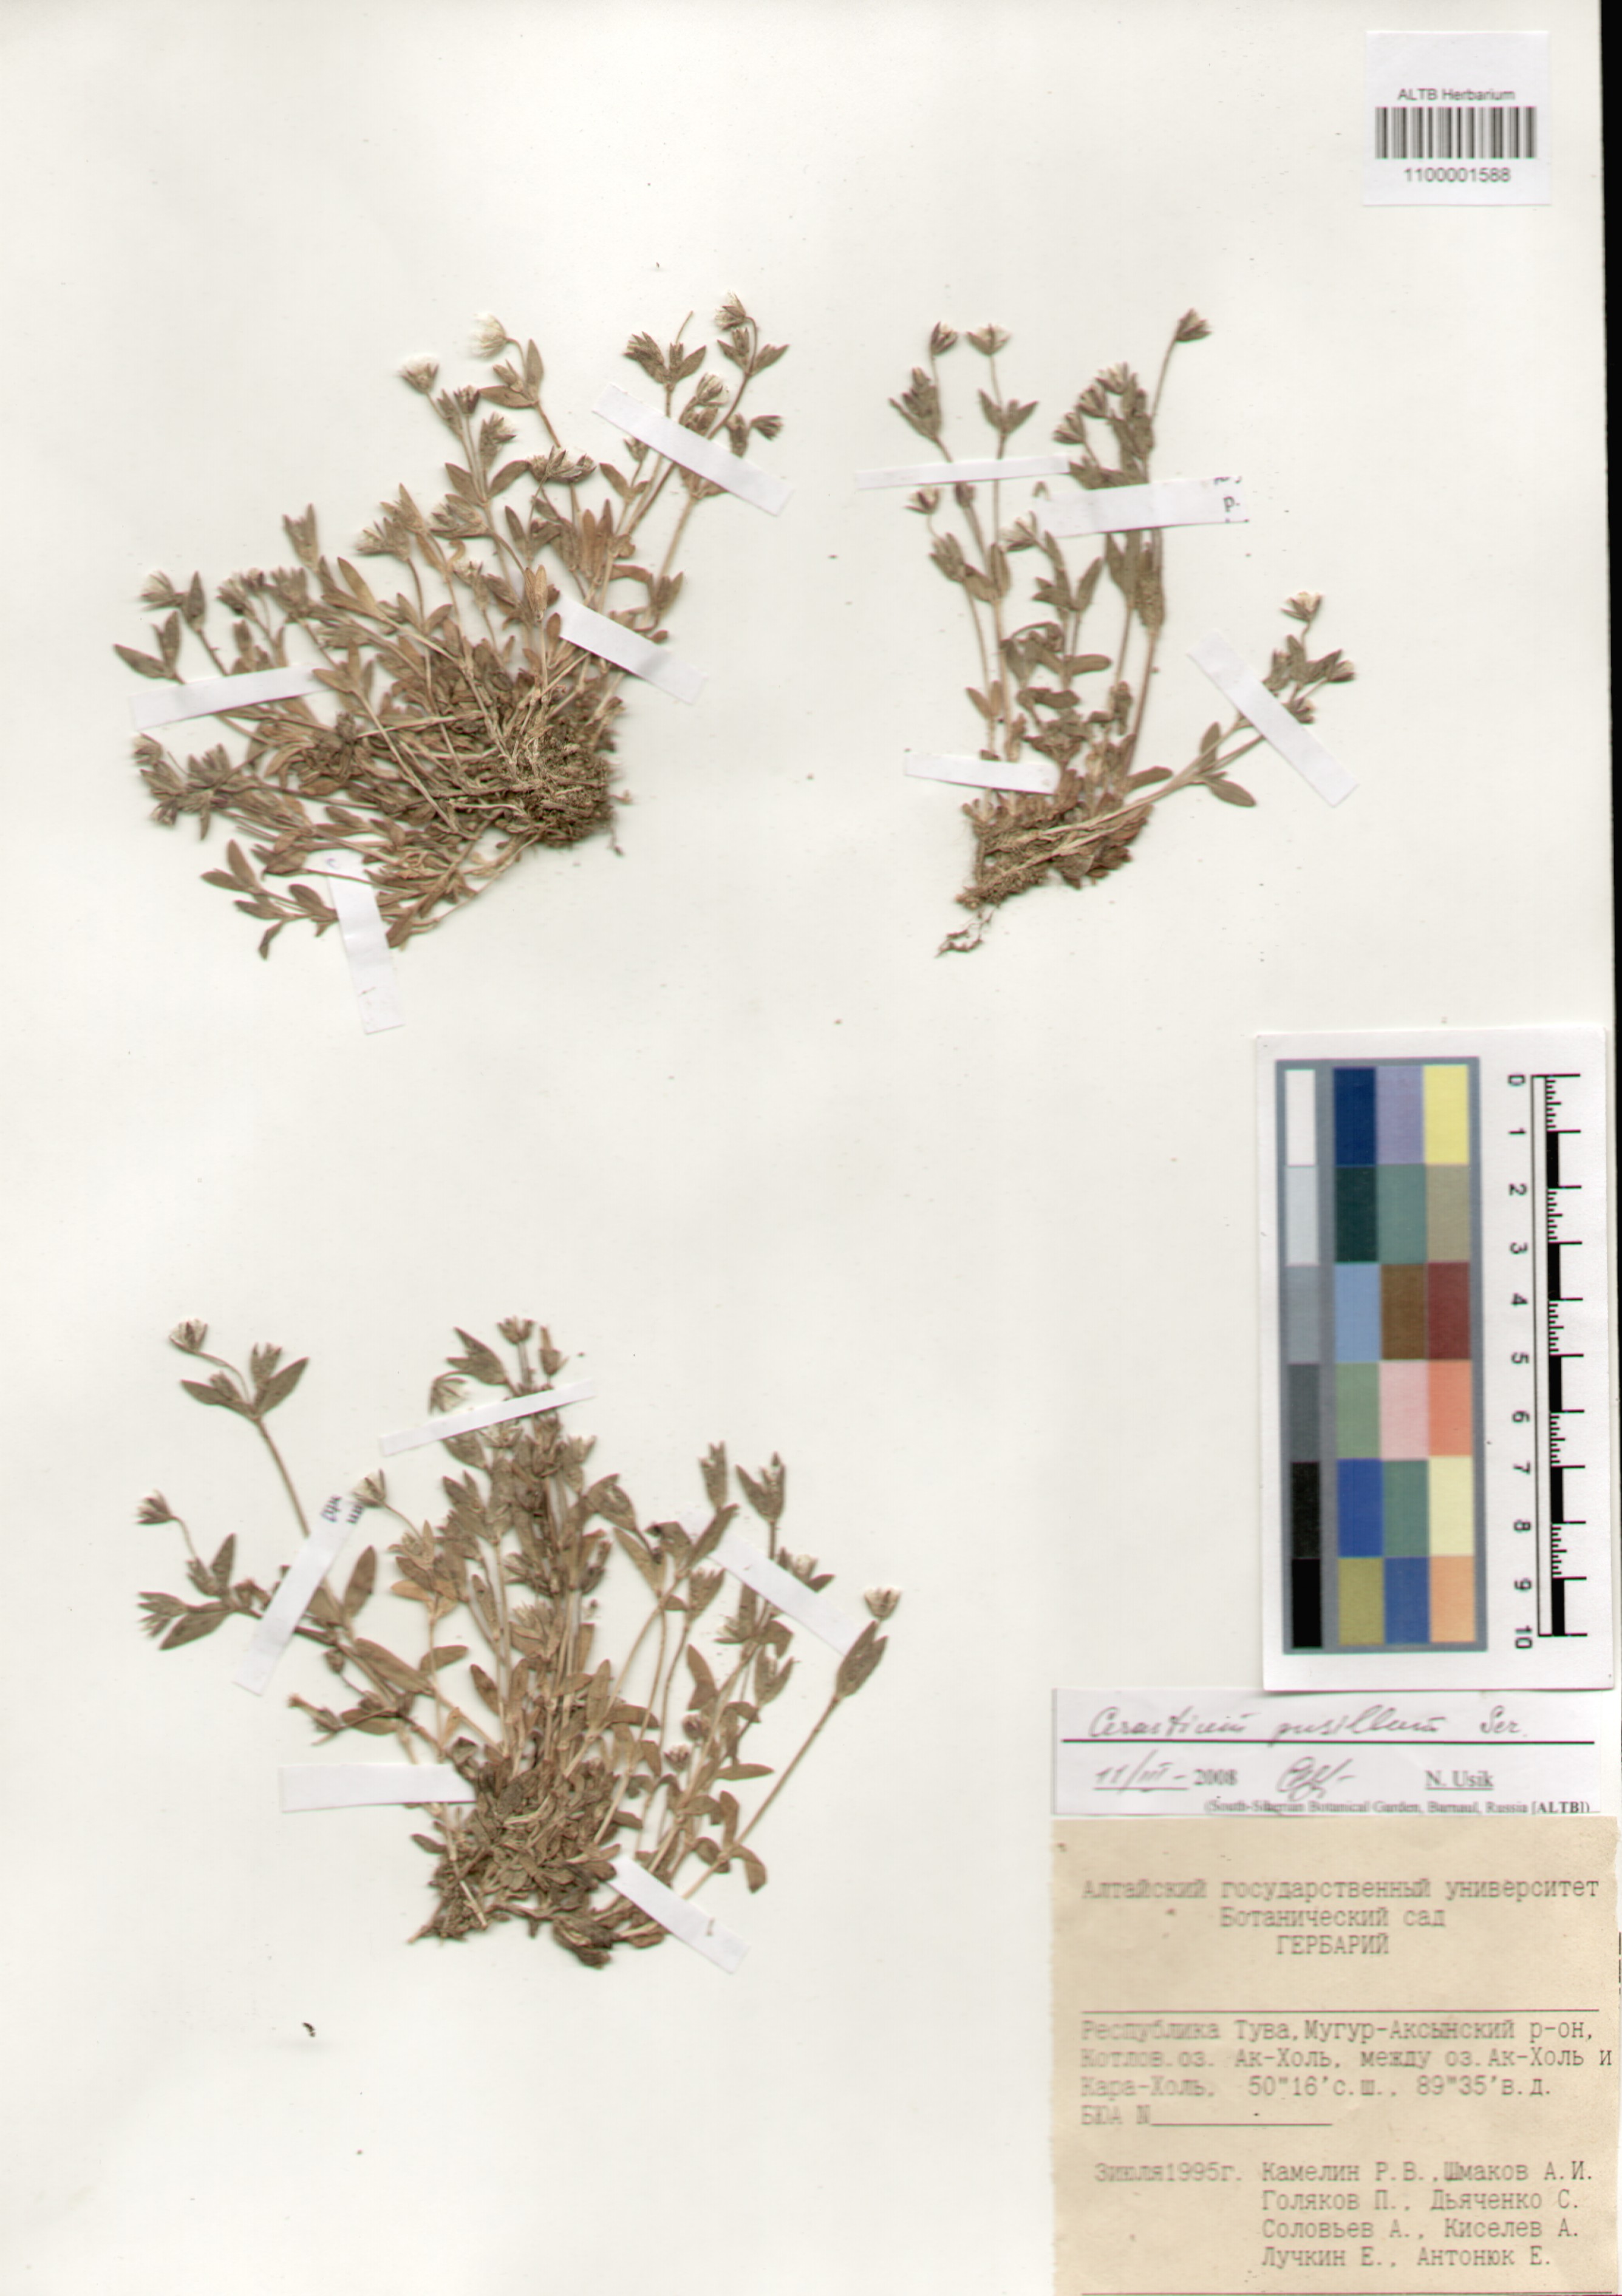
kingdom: Plantae
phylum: Tracheophyta
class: Magnoliopsida
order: Caryophyllales
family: Caryophyllaceae
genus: Cerastium
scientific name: Cerastium pusillum
